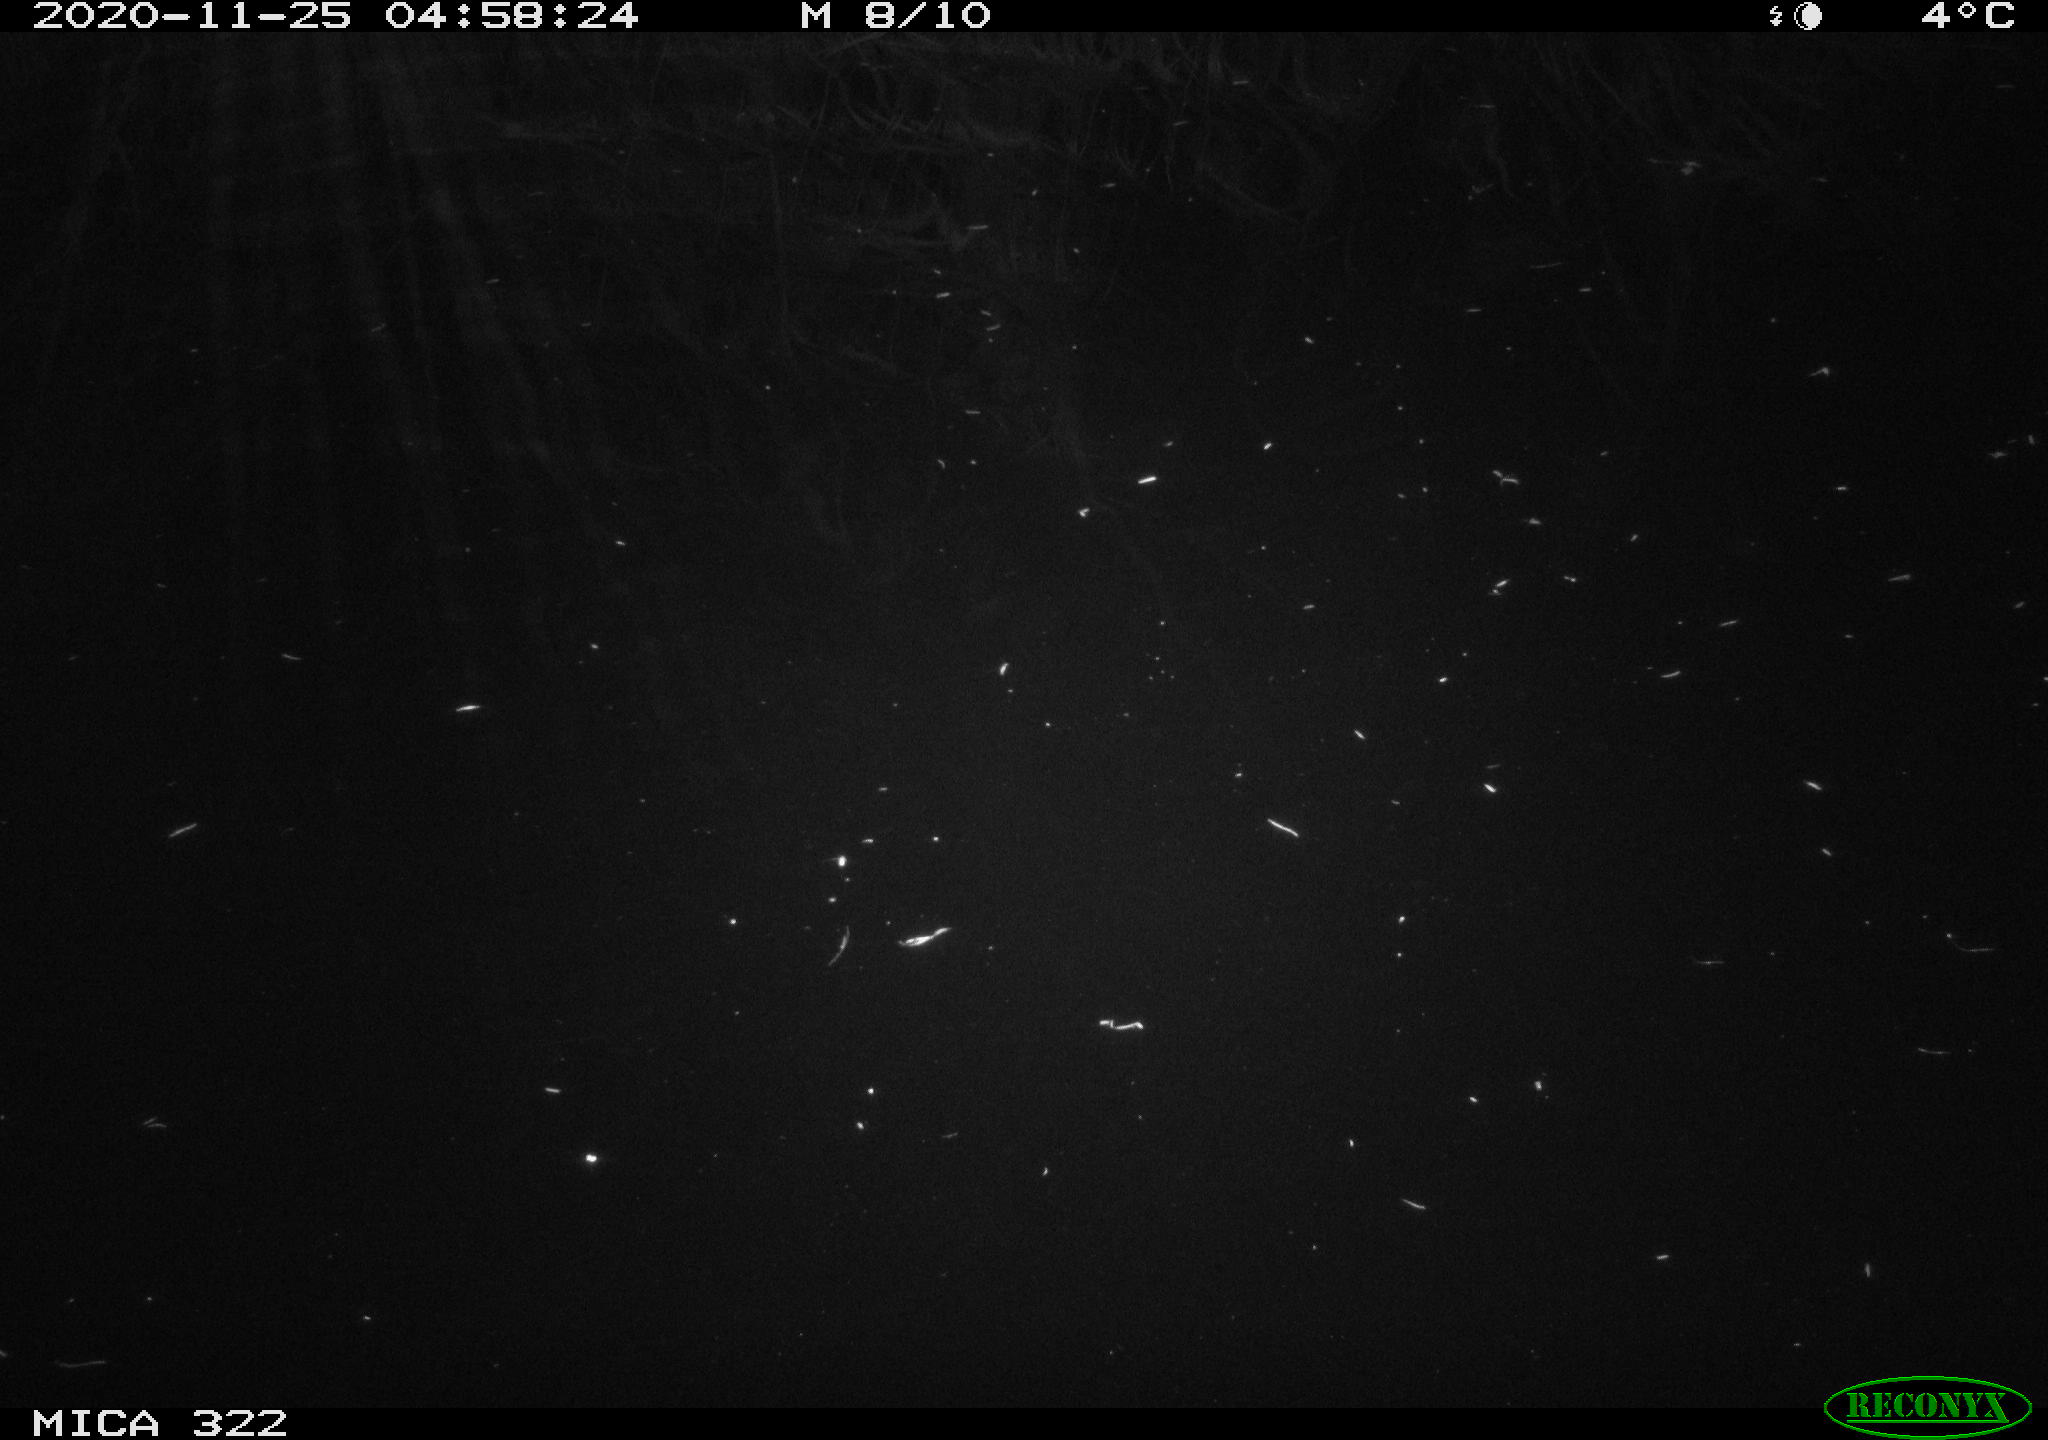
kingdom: Animalia
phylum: Chordata
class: Mammalia
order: Rodentia
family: Muridae
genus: Rattus
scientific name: Rattus norvegicus
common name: Brown rat
